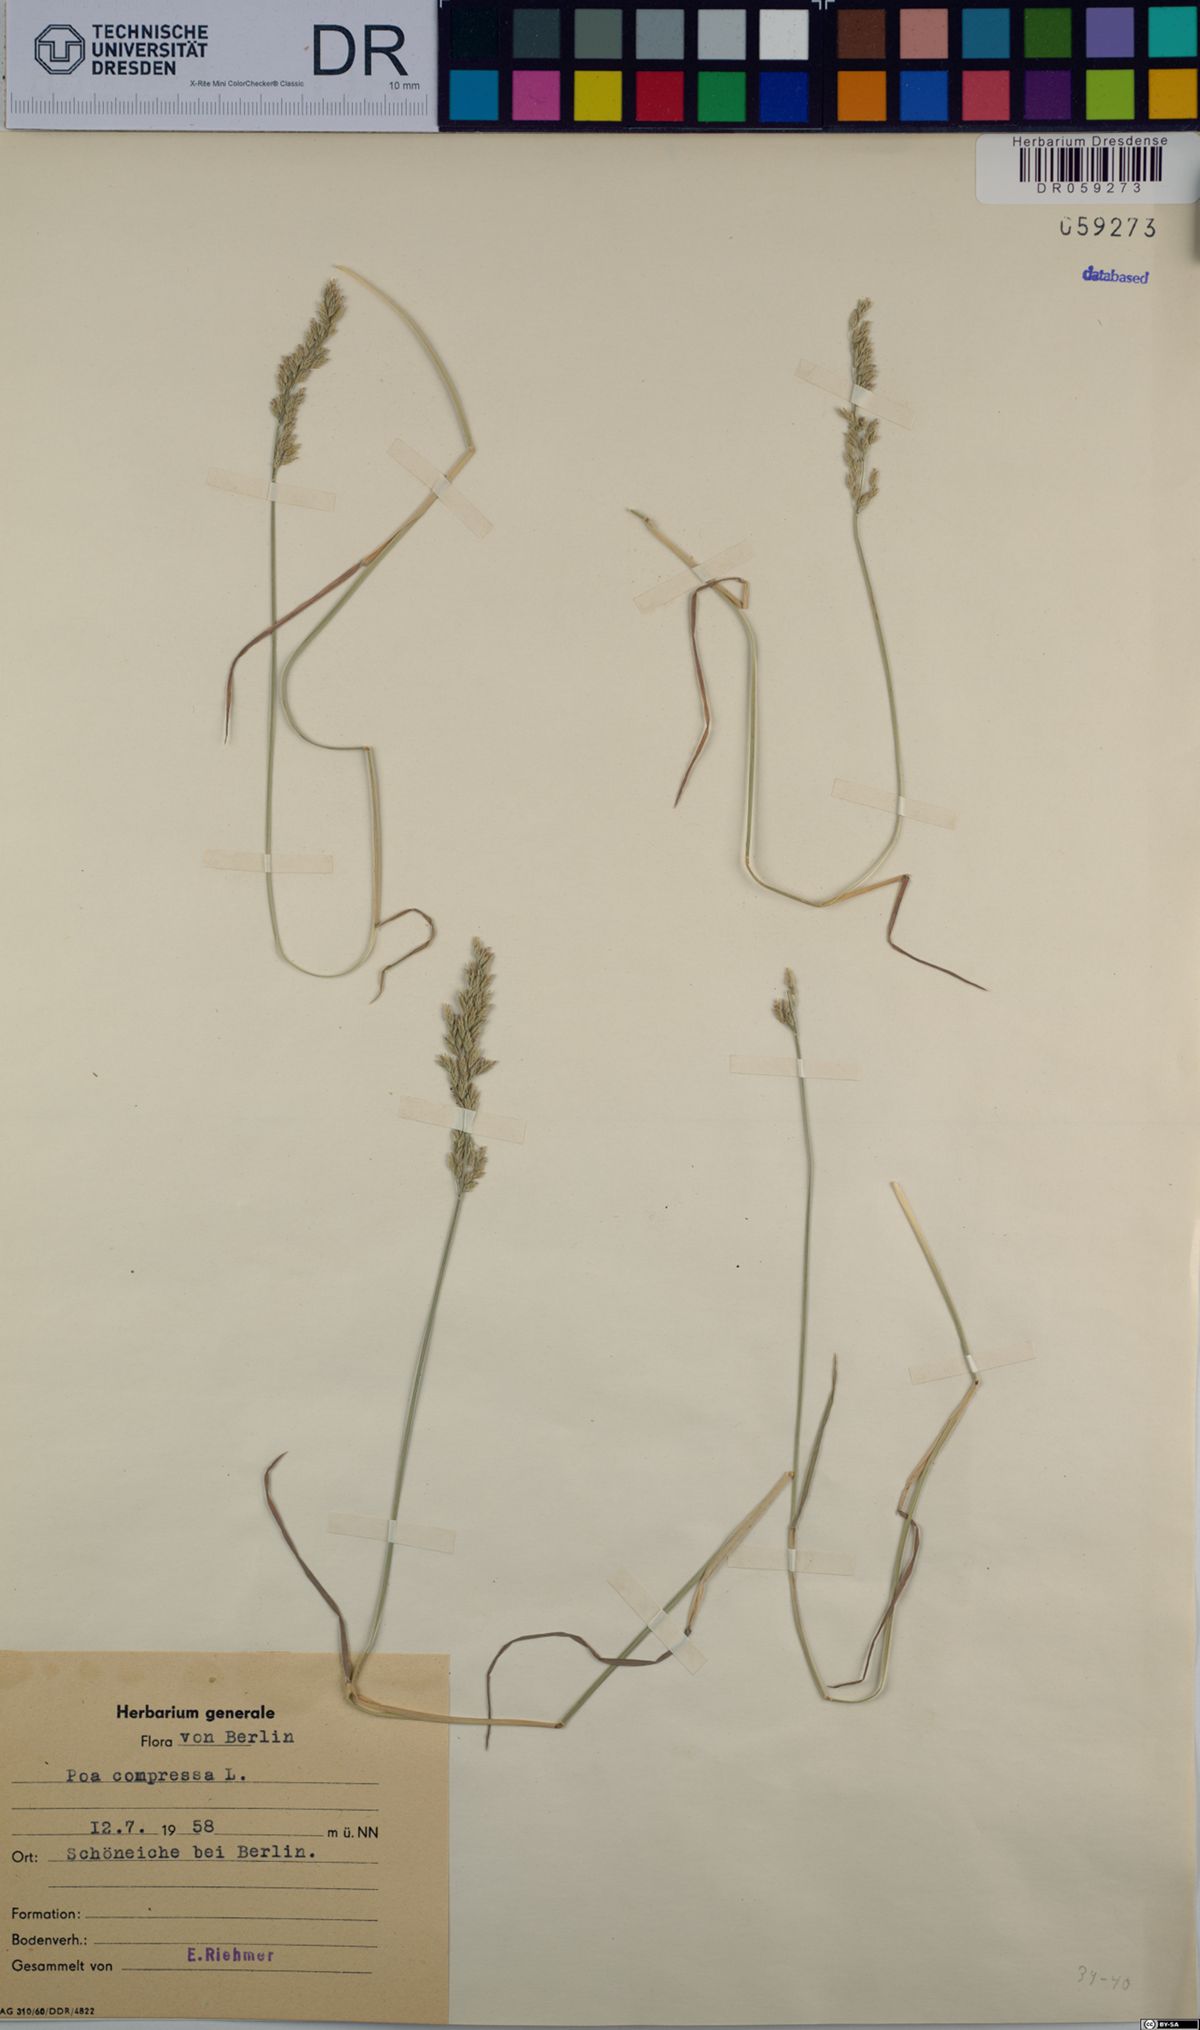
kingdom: Plantae
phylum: Tracheophyta
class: Liliopsida
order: Poales
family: Poaceae
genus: Poa
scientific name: Poa compressa
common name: Canada bluegrass
